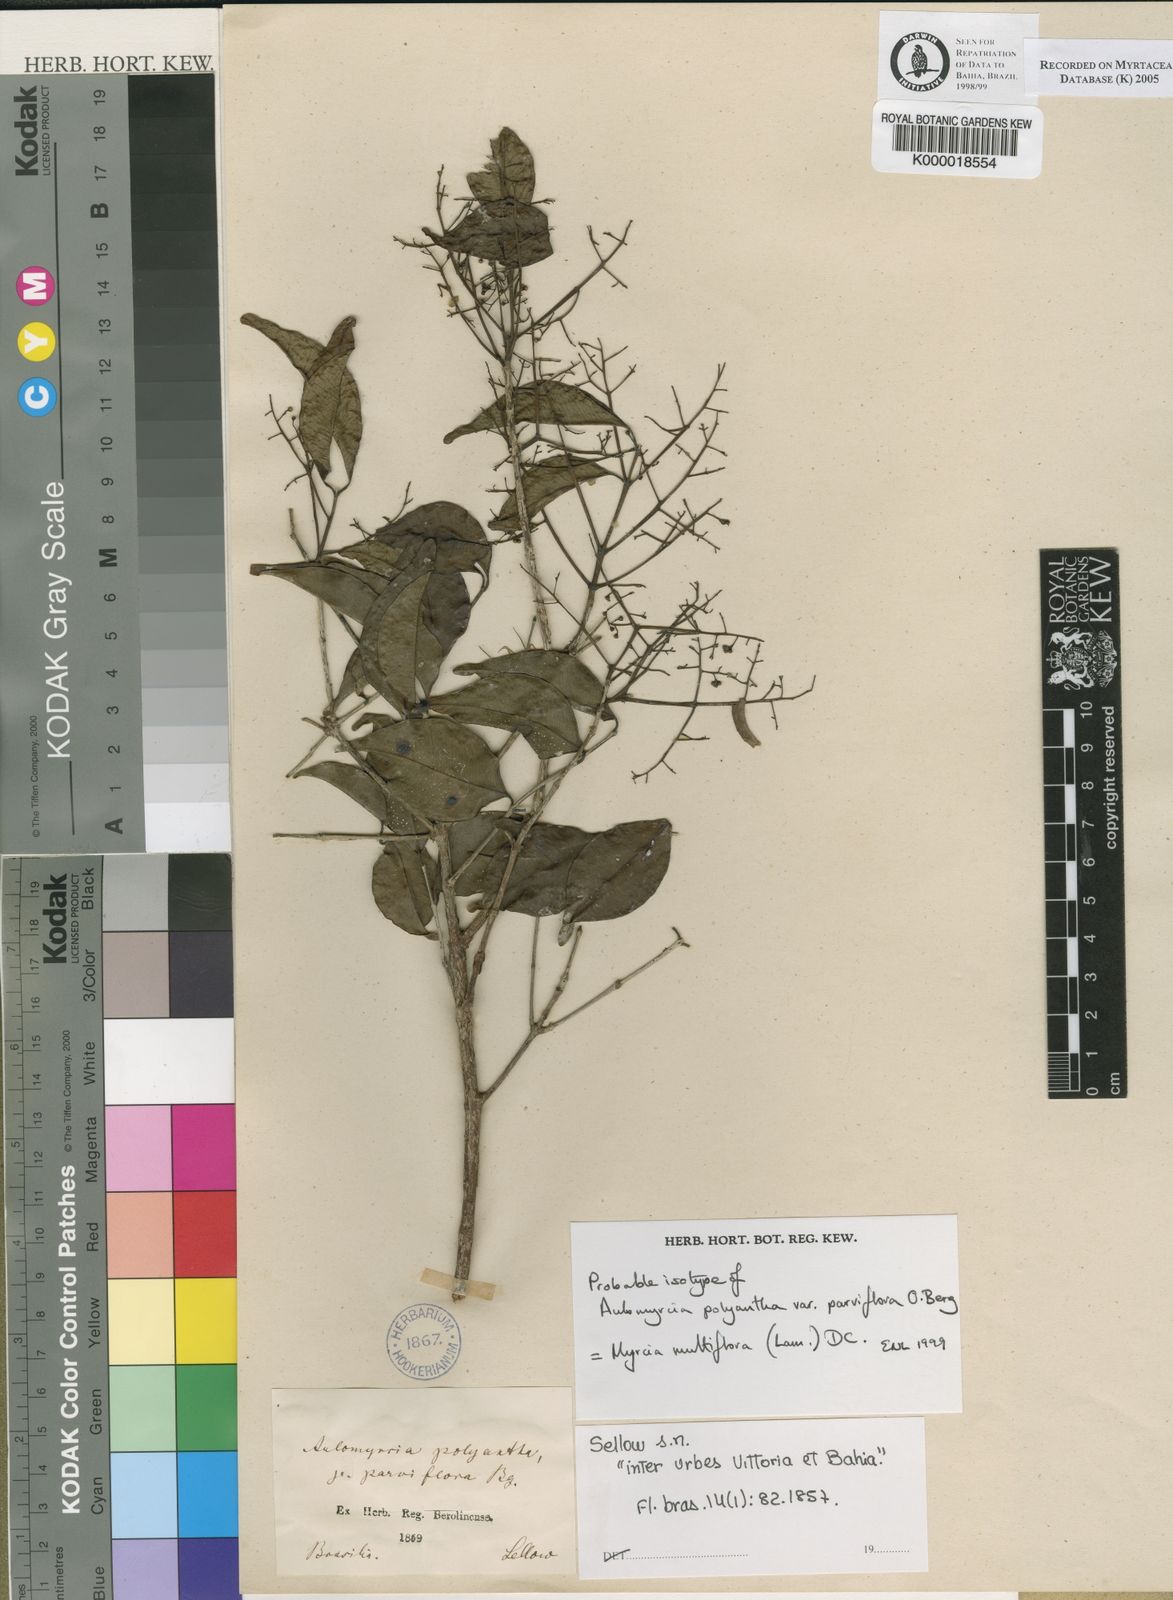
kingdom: Plantae
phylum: Tracheophyta
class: Magnoliopsida
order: Myrtales
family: Myrtaceae
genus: Myrcia
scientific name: Myrcia multiflora
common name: Pedra hume
